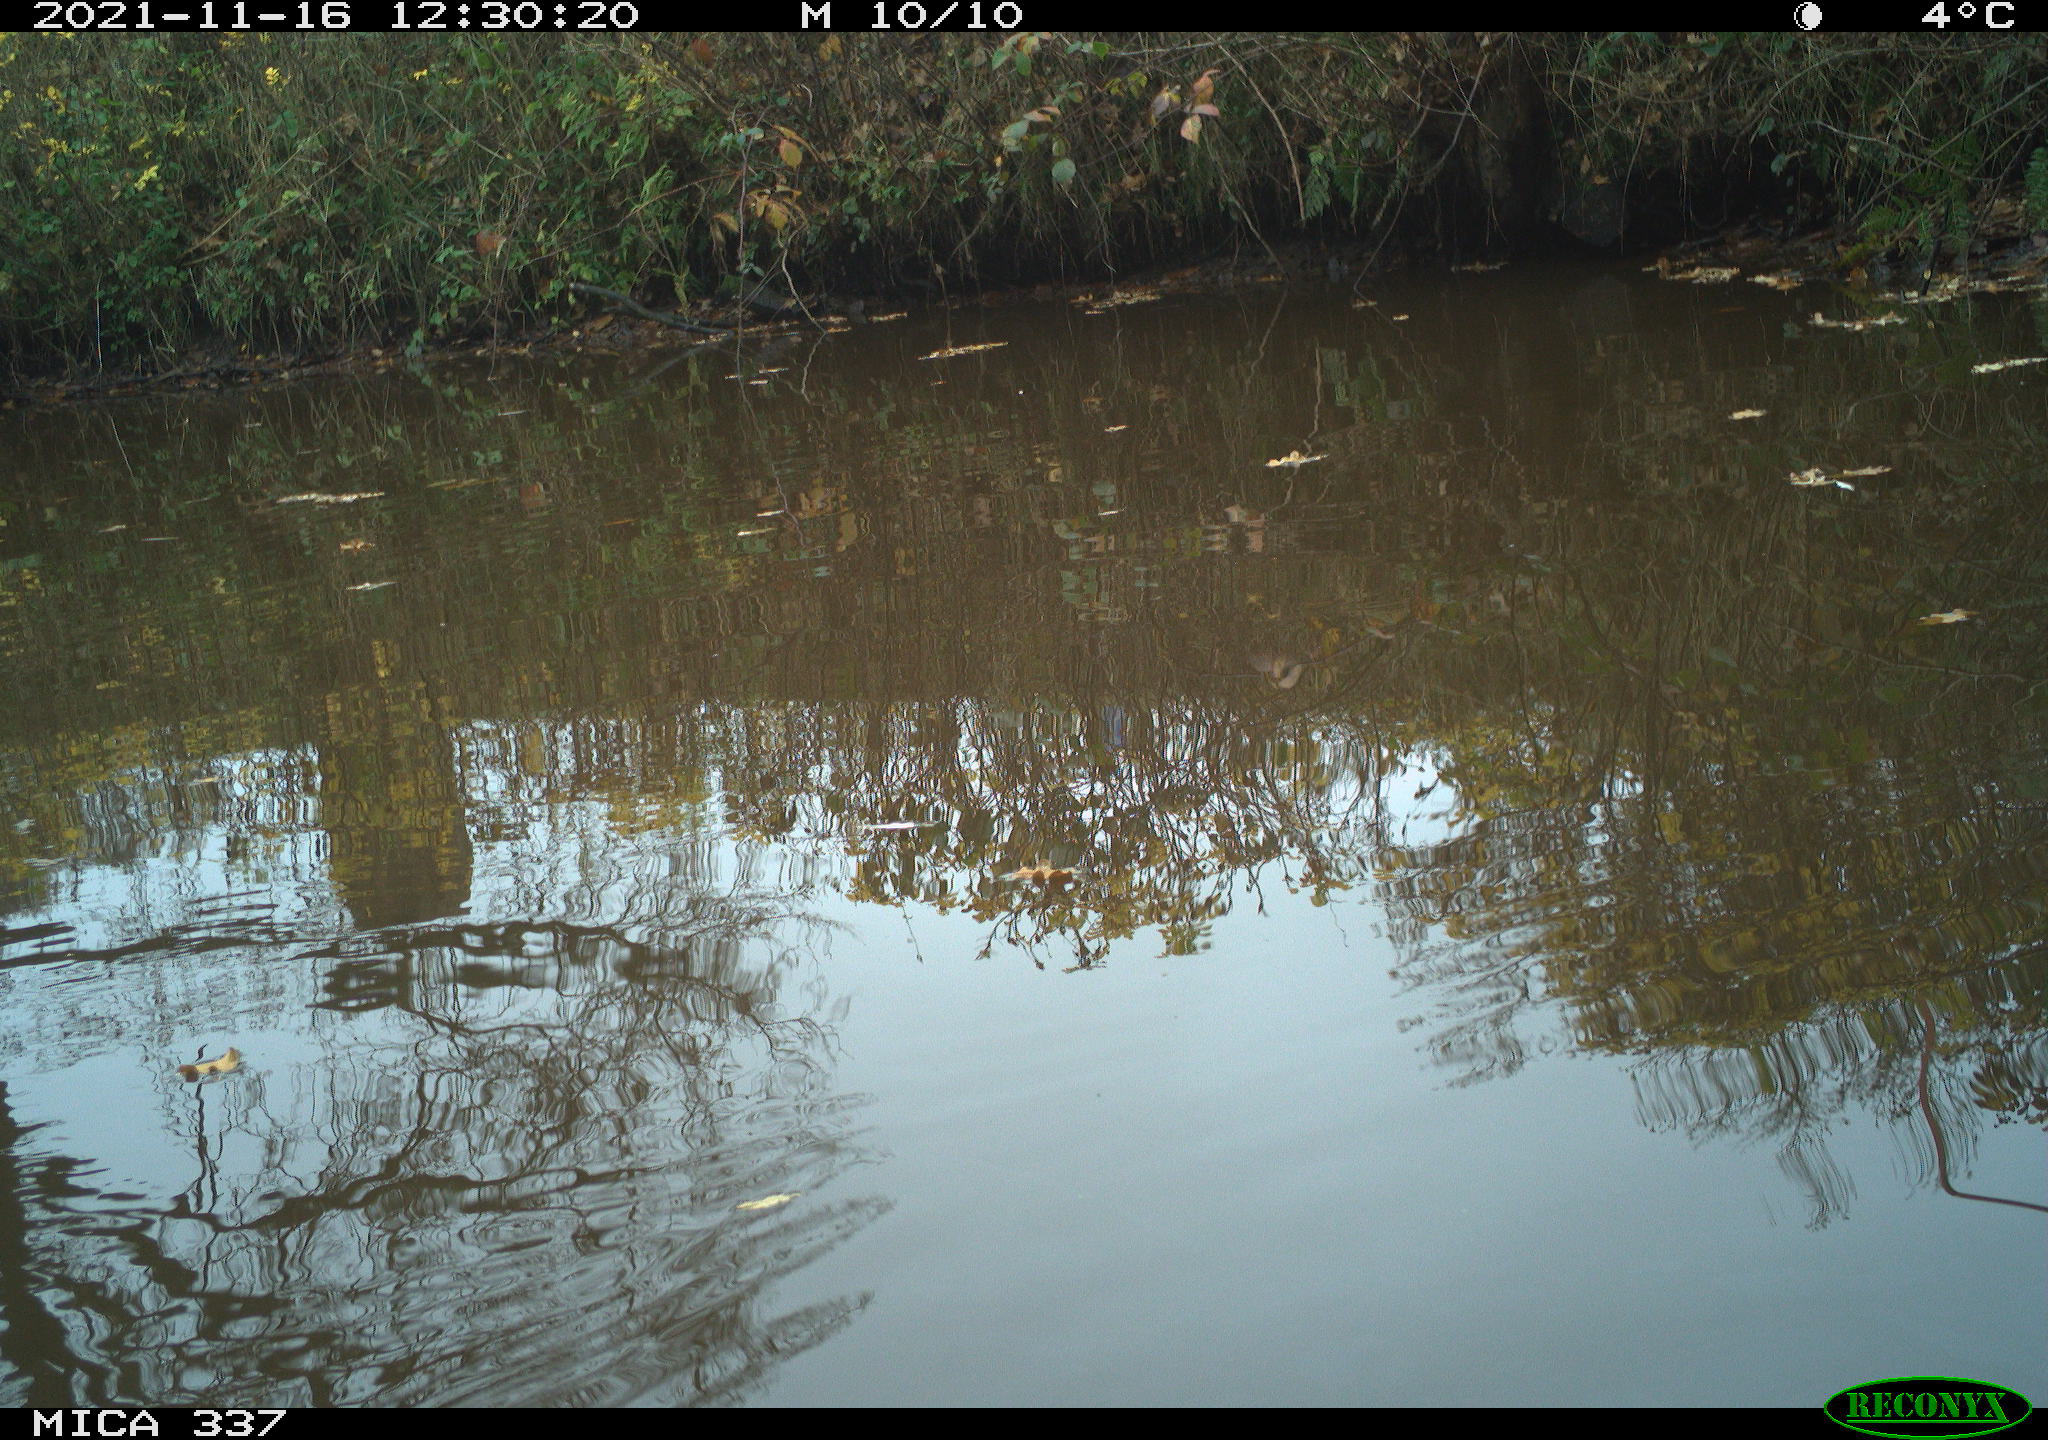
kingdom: Animalia
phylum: Chordata
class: Aves
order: Anseriformes
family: Anatidae
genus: Anas
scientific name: Anas platyrhynchos
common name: Mallard
